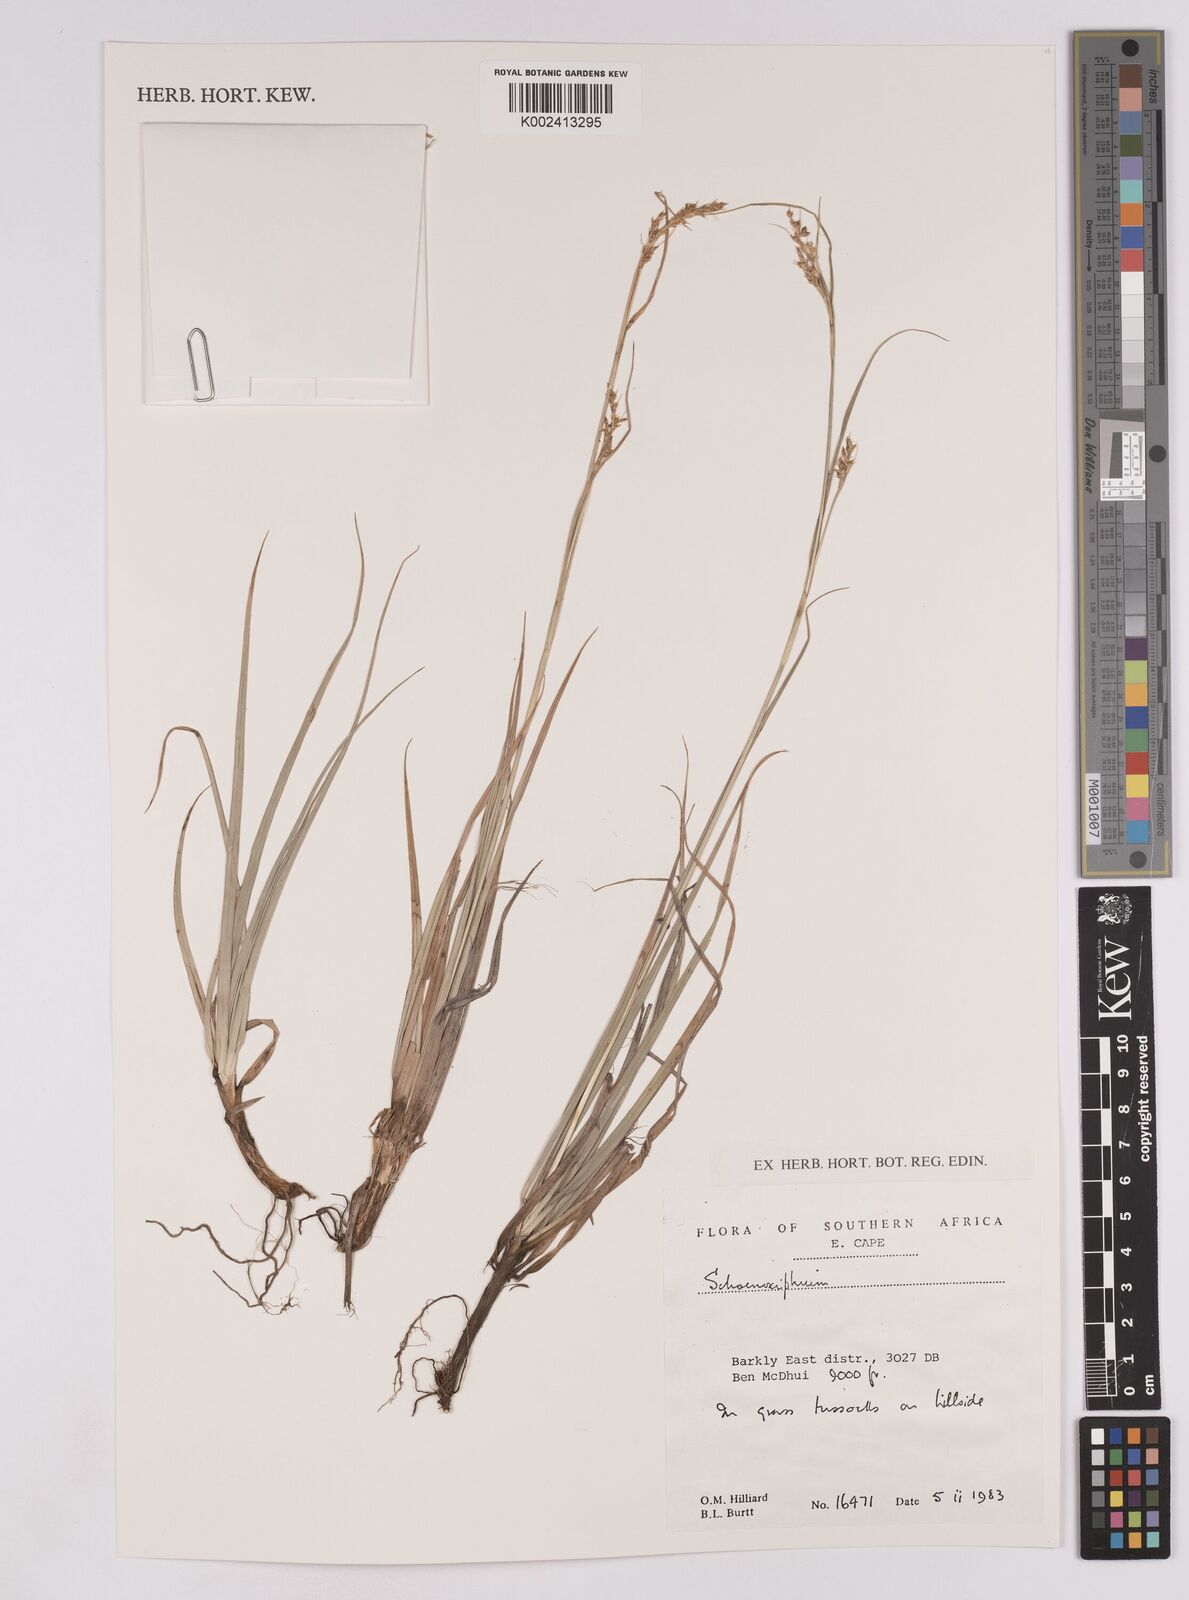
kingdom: Plantae
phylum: Tracheophyta
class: Liliopsida
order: Poales
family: Cyperaceae
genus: Carex
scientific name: Carex
